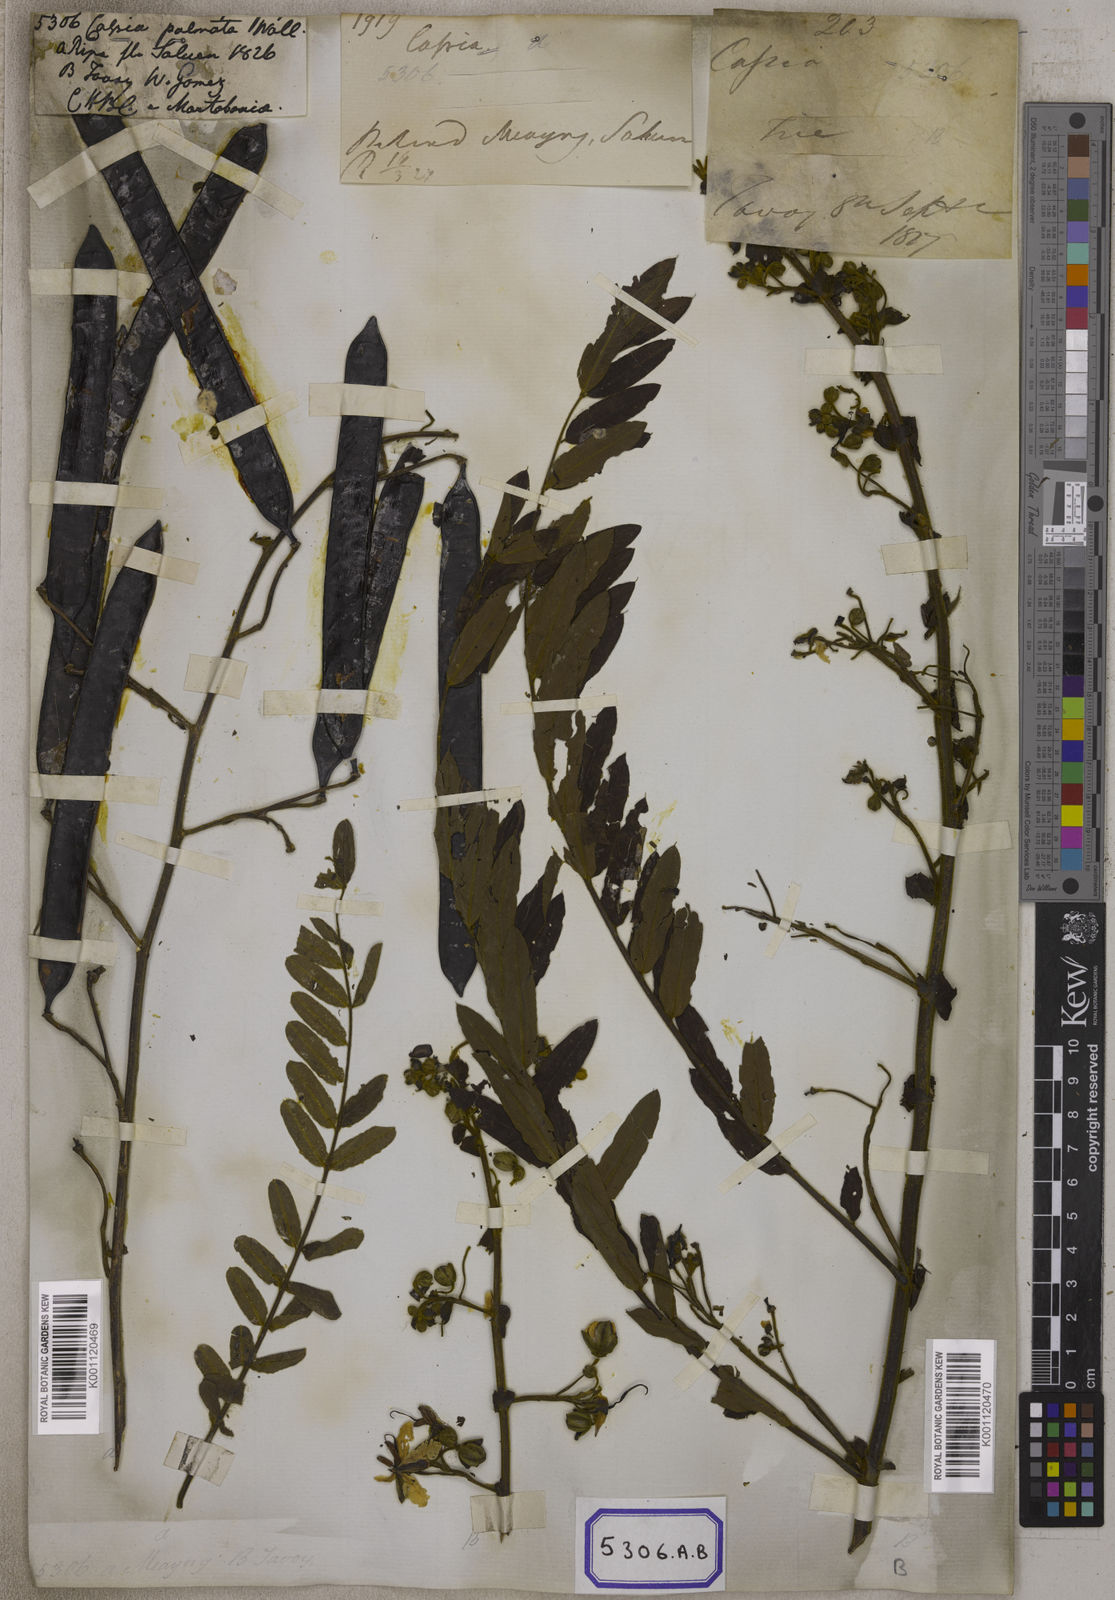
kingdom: Plantae
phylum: Tracheophyta
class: Magnoliopsida
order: Fabales
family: Fabaceae
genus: Senna
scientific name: Senna timoriensis
